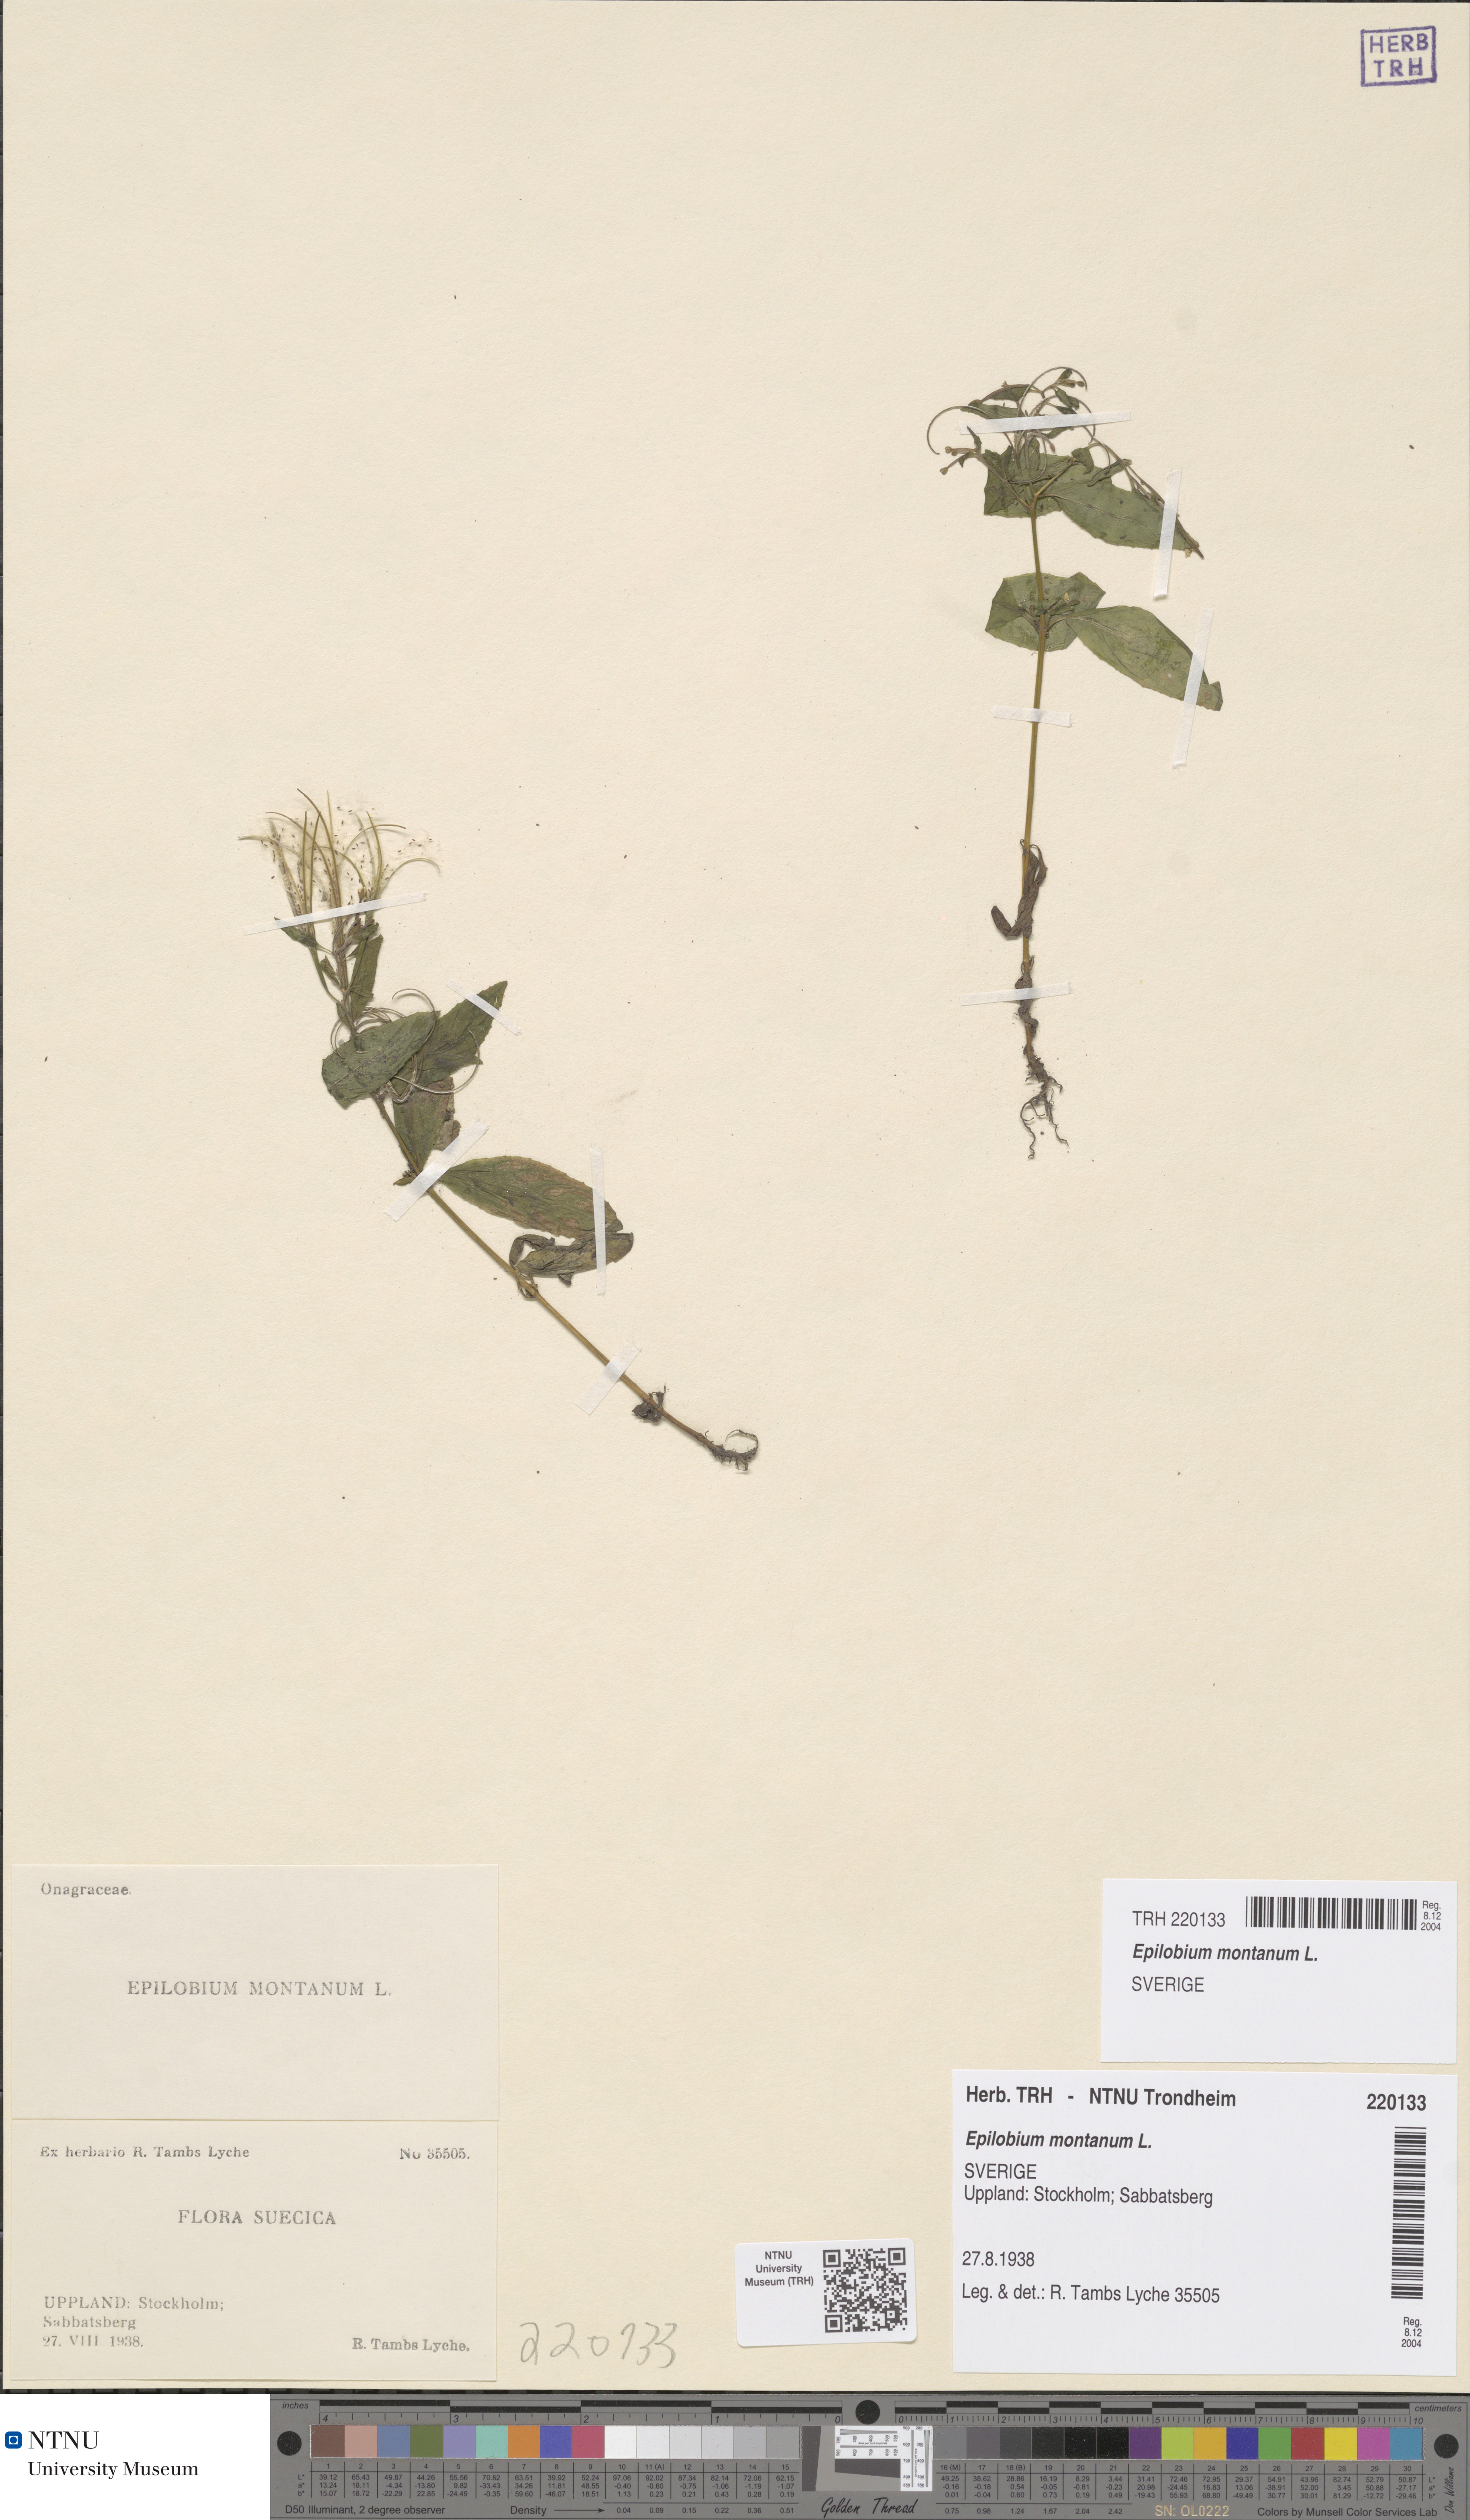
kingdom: Plantae
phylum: Tracheophyta
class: Magnoliopsida
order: Myrtales
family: Onagraceae
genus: Epilobium
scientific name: Epilobium montanum
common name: Broad-leaved willowherb
